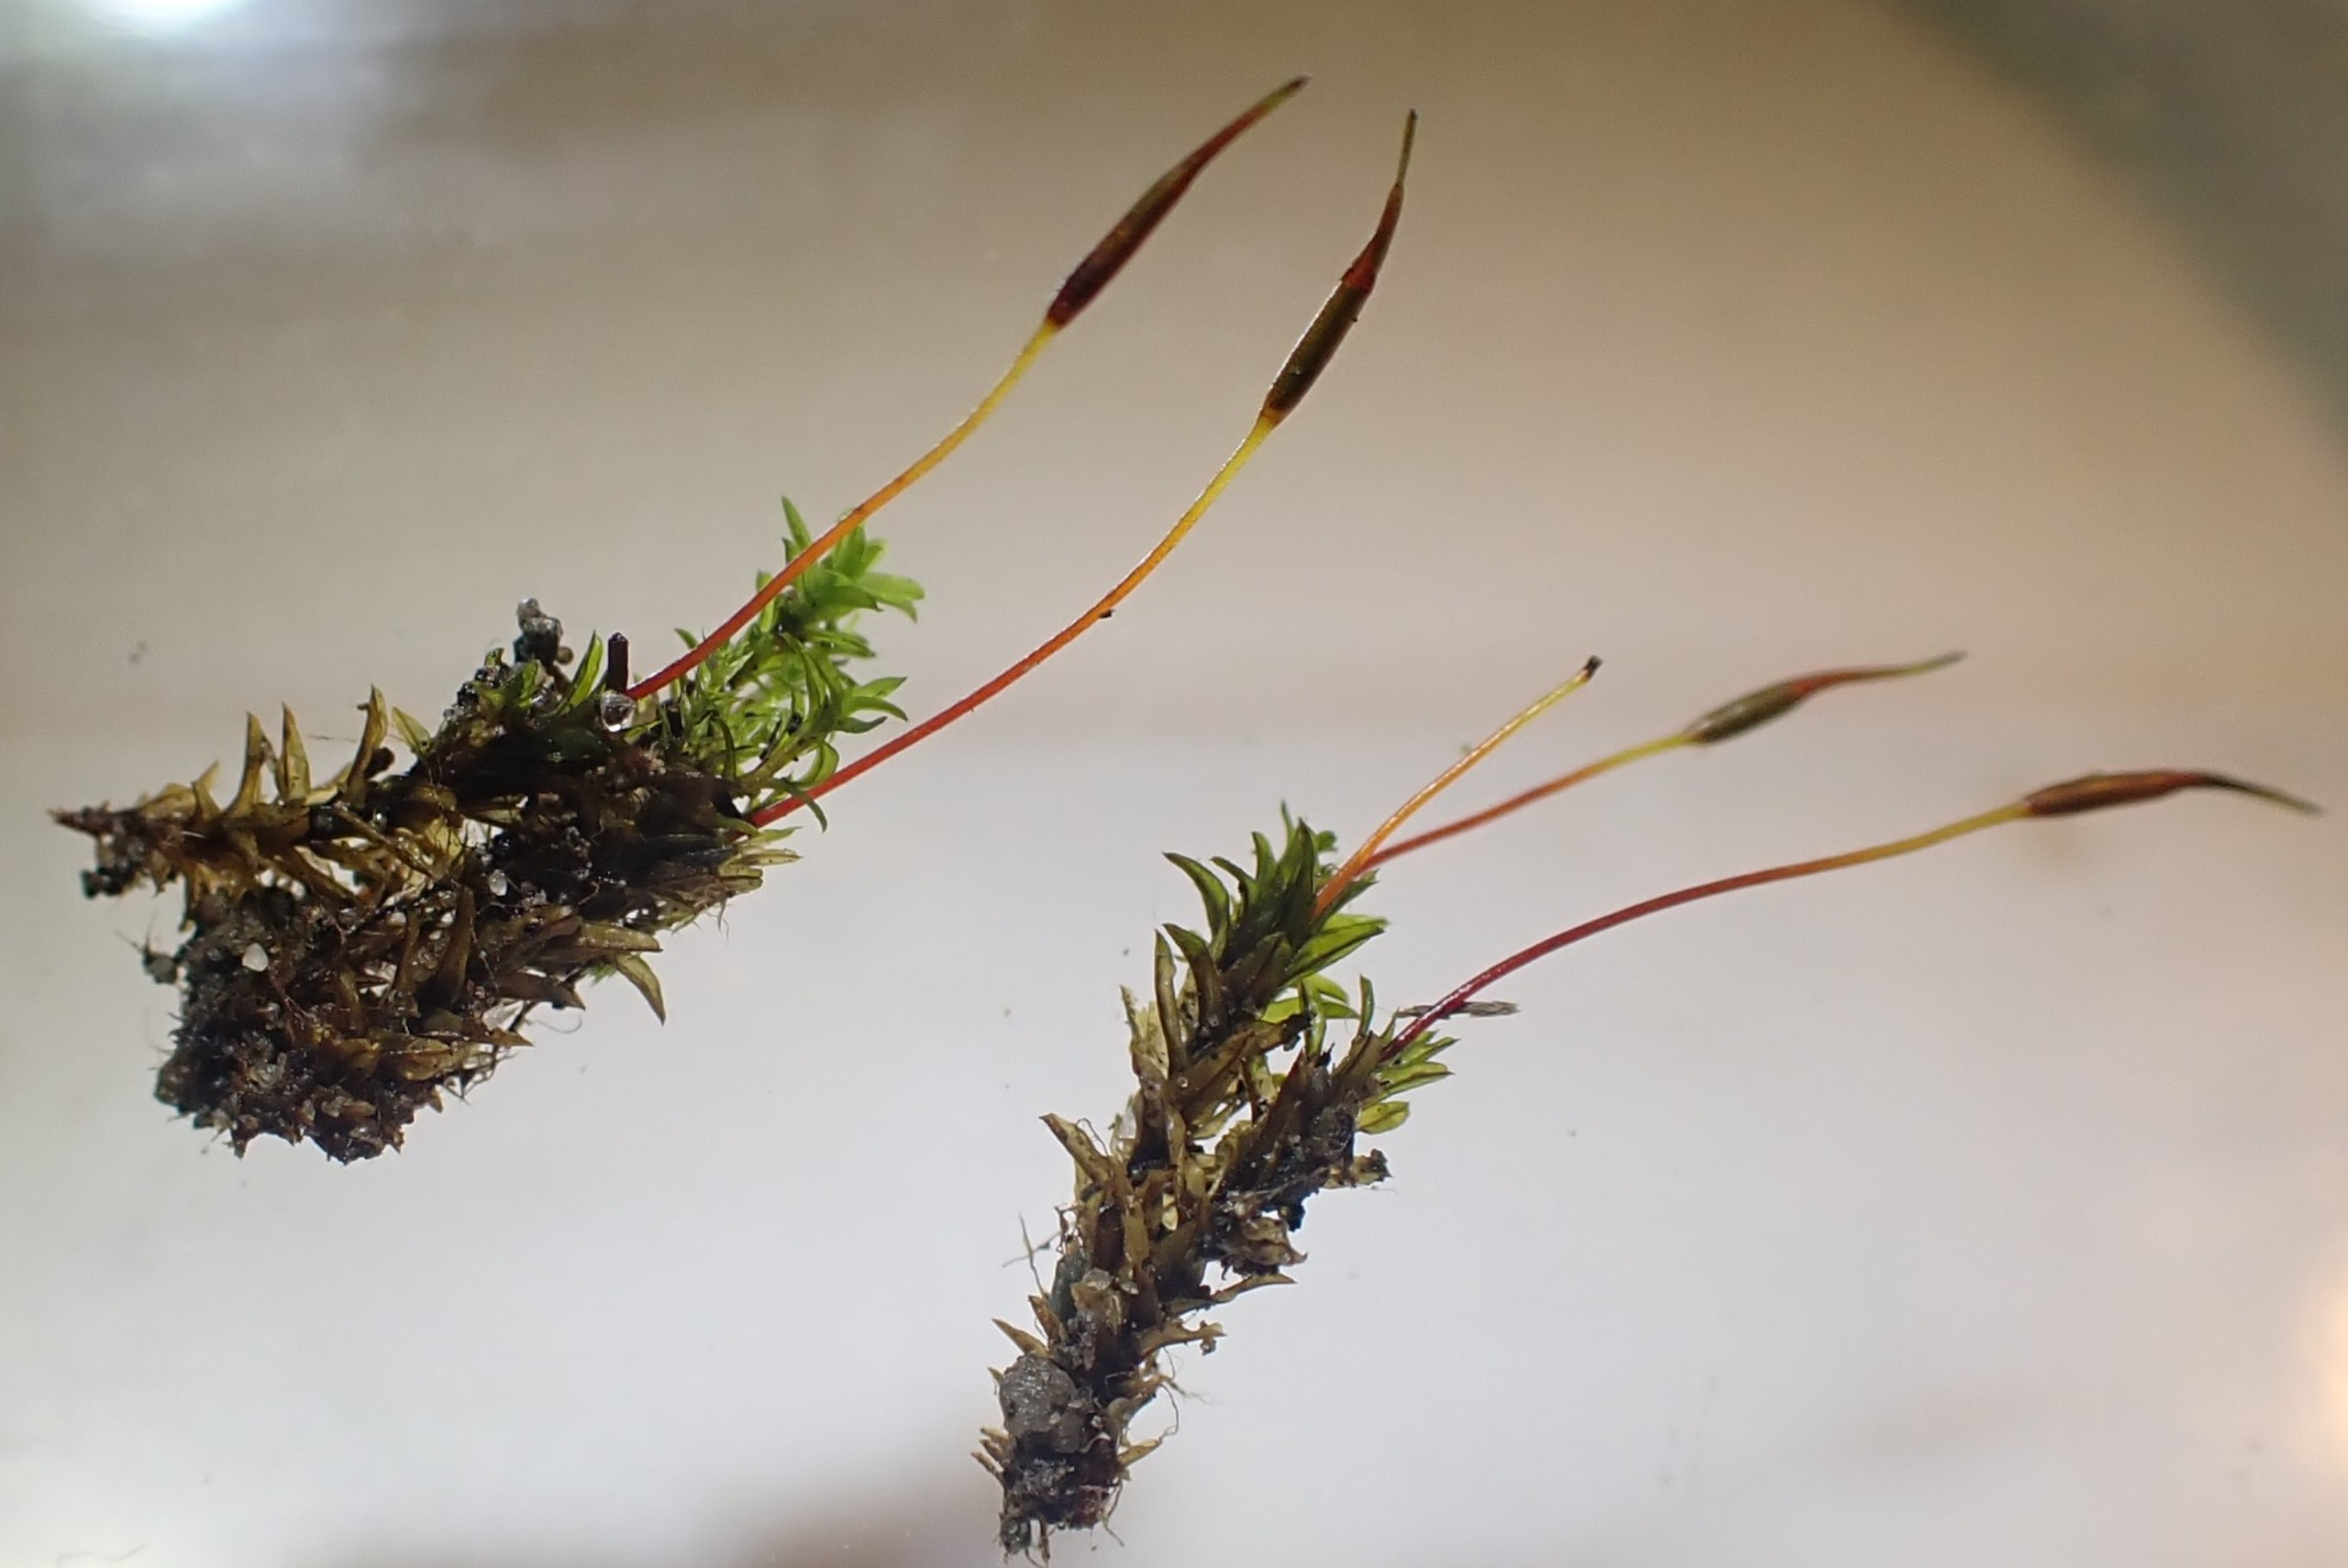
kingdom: Plantae
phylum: Bryophyta
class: Bryopsida
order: Pottiales
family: Pottiaceae
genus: Barbula
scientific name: Barbula unguiculata
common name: Almindelig skægtand
